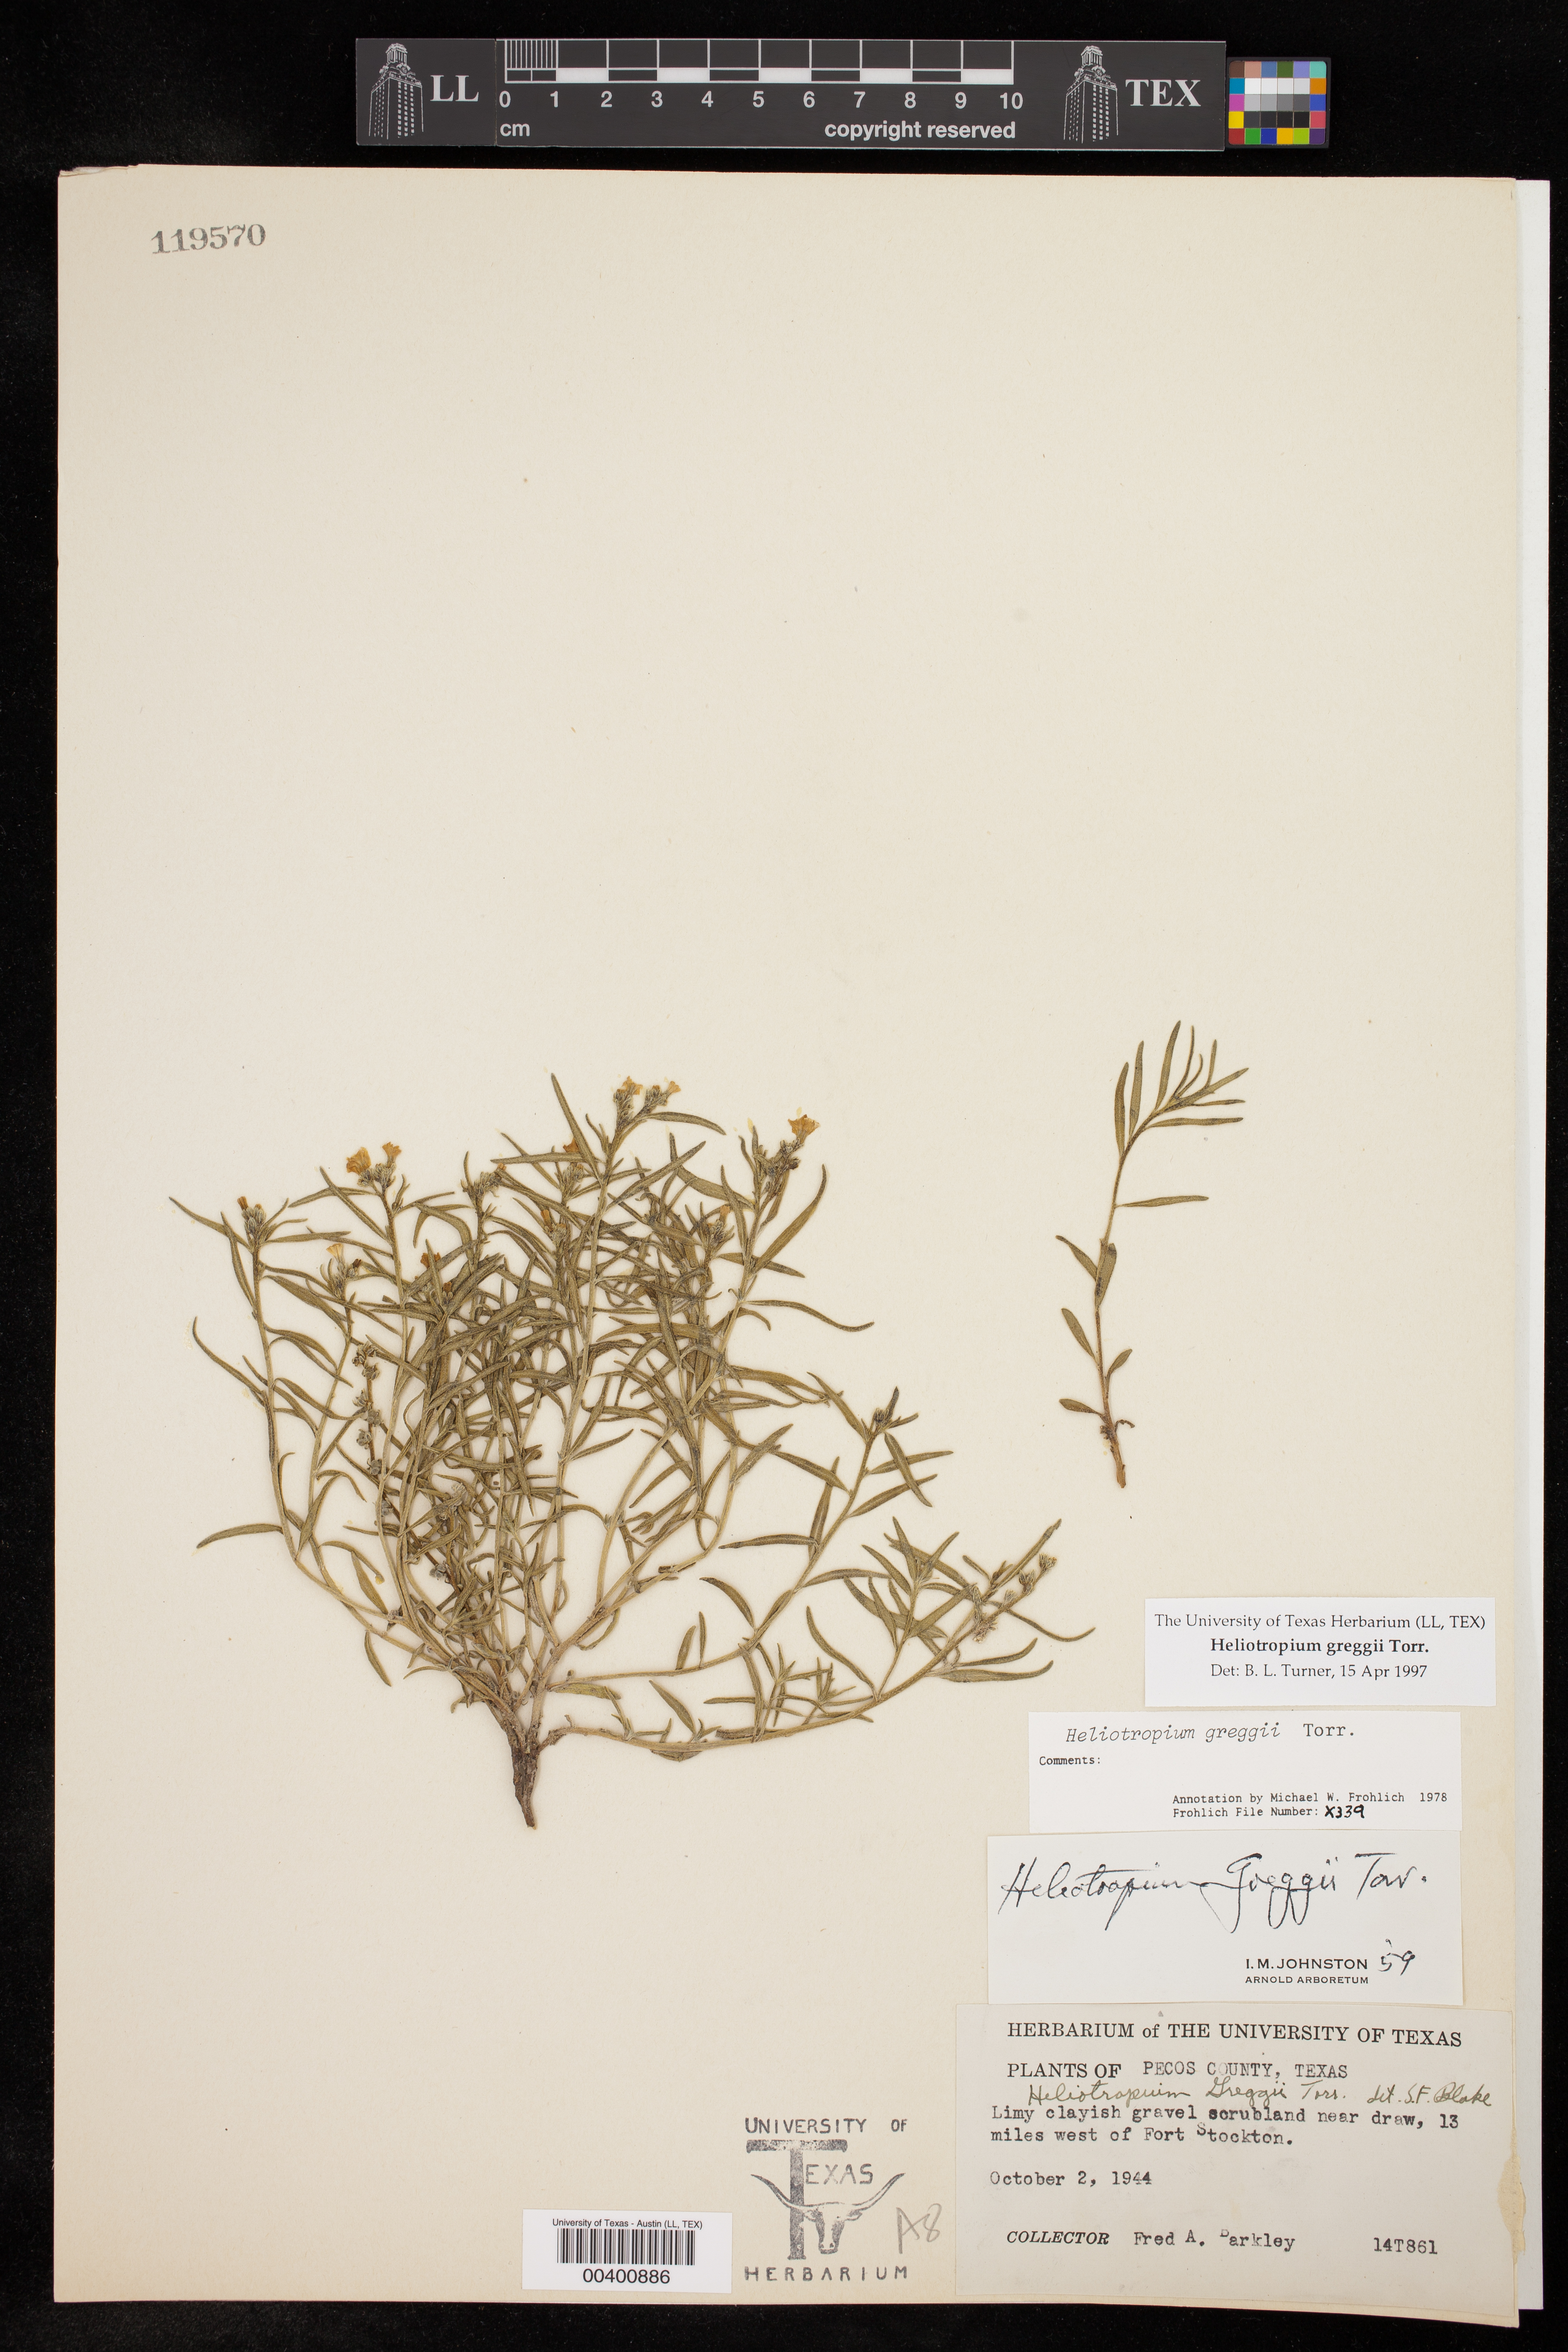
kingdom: Plantae
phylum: Tracheophyta
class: Magnoliopsida
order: Boraginales
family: Heliotropiaceae
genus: Euploca
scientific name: Euploca greggii
